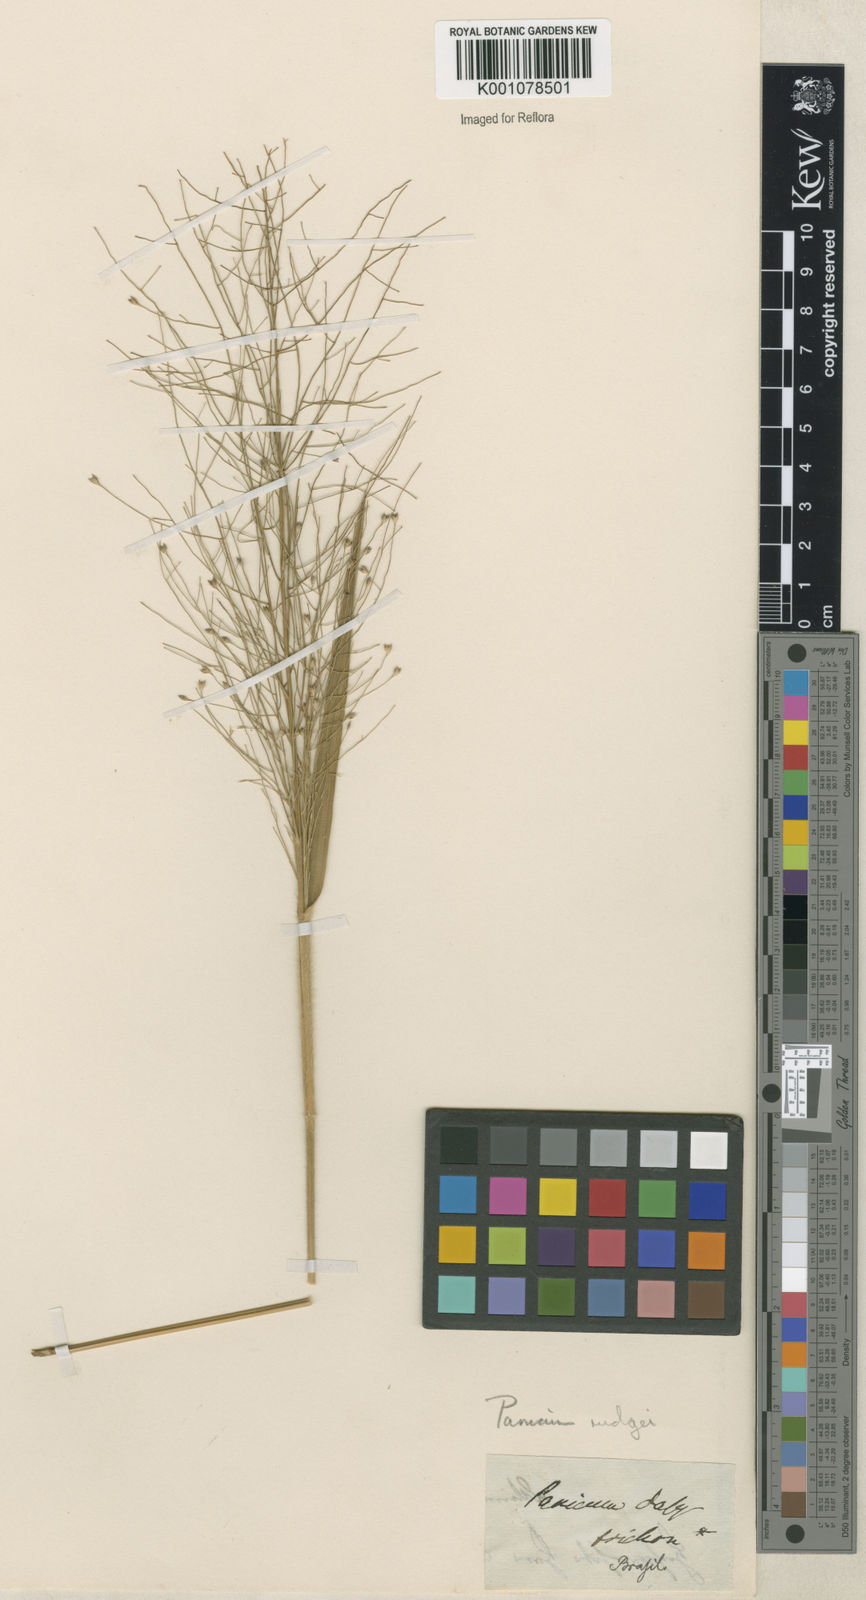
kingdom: Plantae
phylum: Tracheophyta
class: Liliopsida
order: Poales
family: Poaceae
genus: Panicum
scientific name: Panicum rudgei
